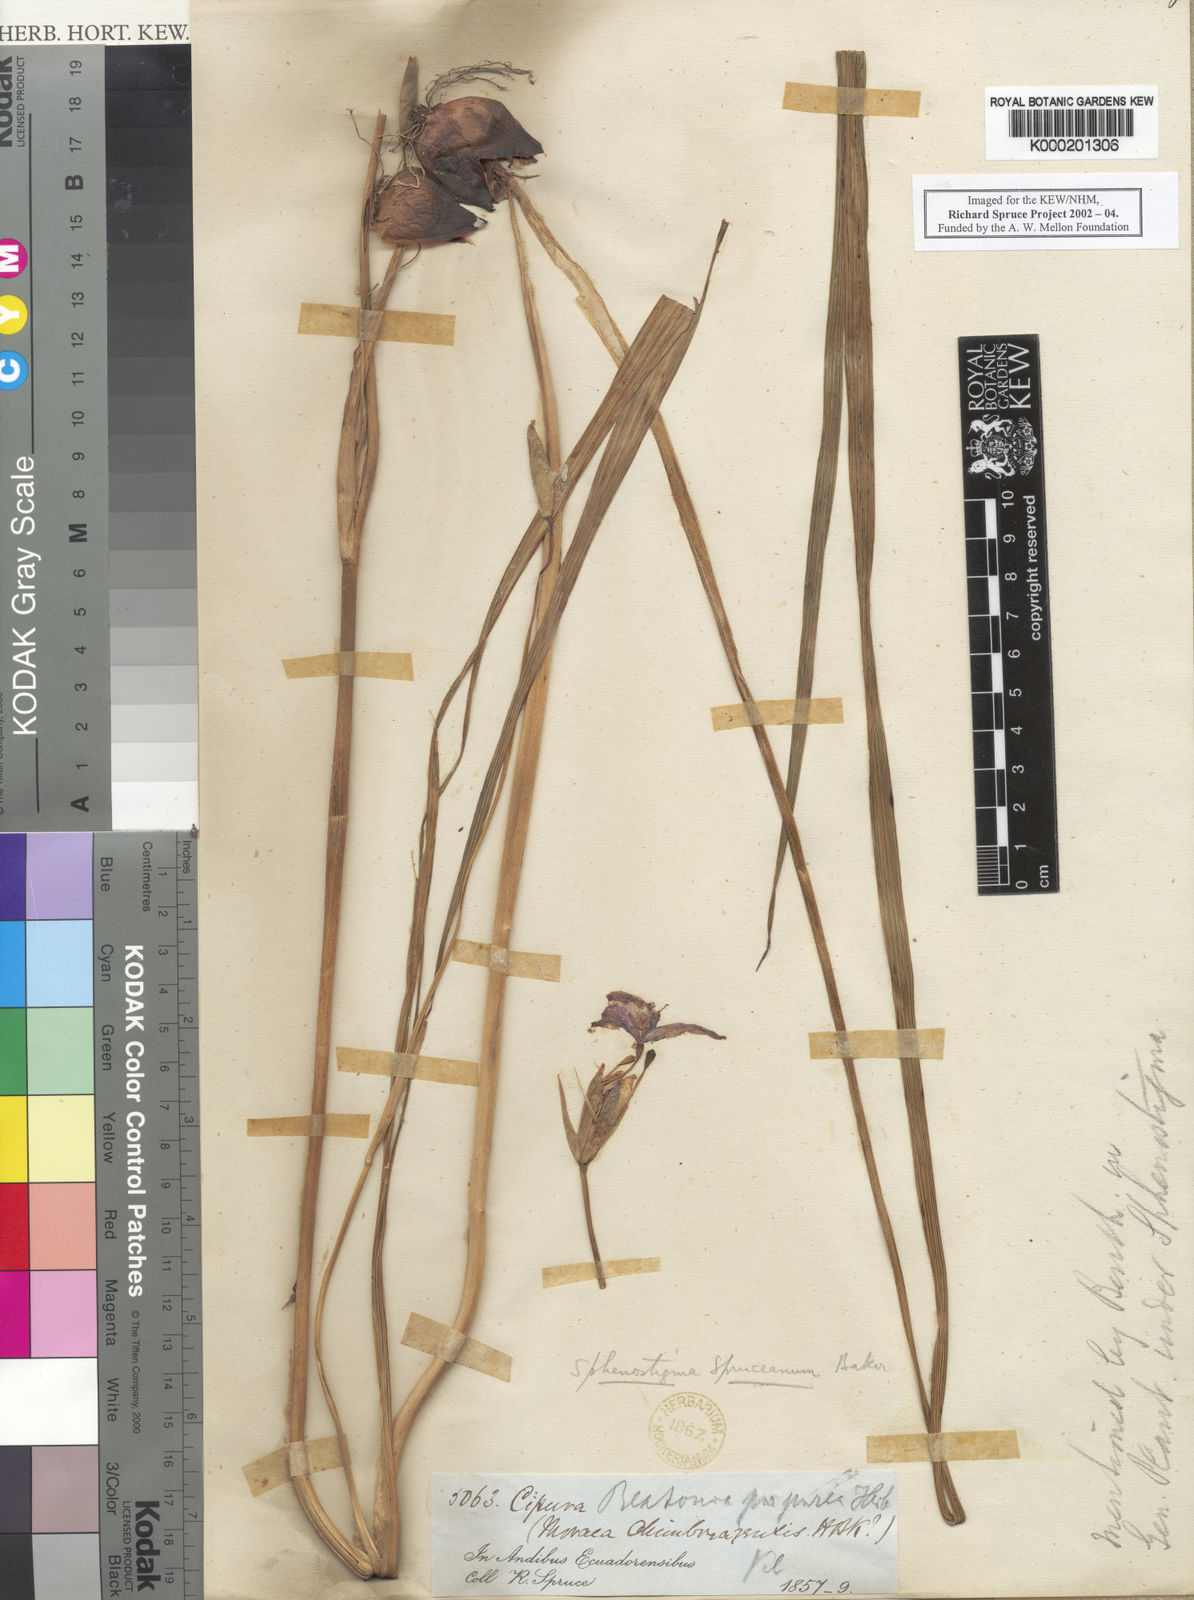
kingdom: Plantae
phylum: Tracheophyta
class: Liliopsida
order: Asparagales
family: Iridaceae
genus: Ennealophus
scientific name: Ennealophus foliosus
